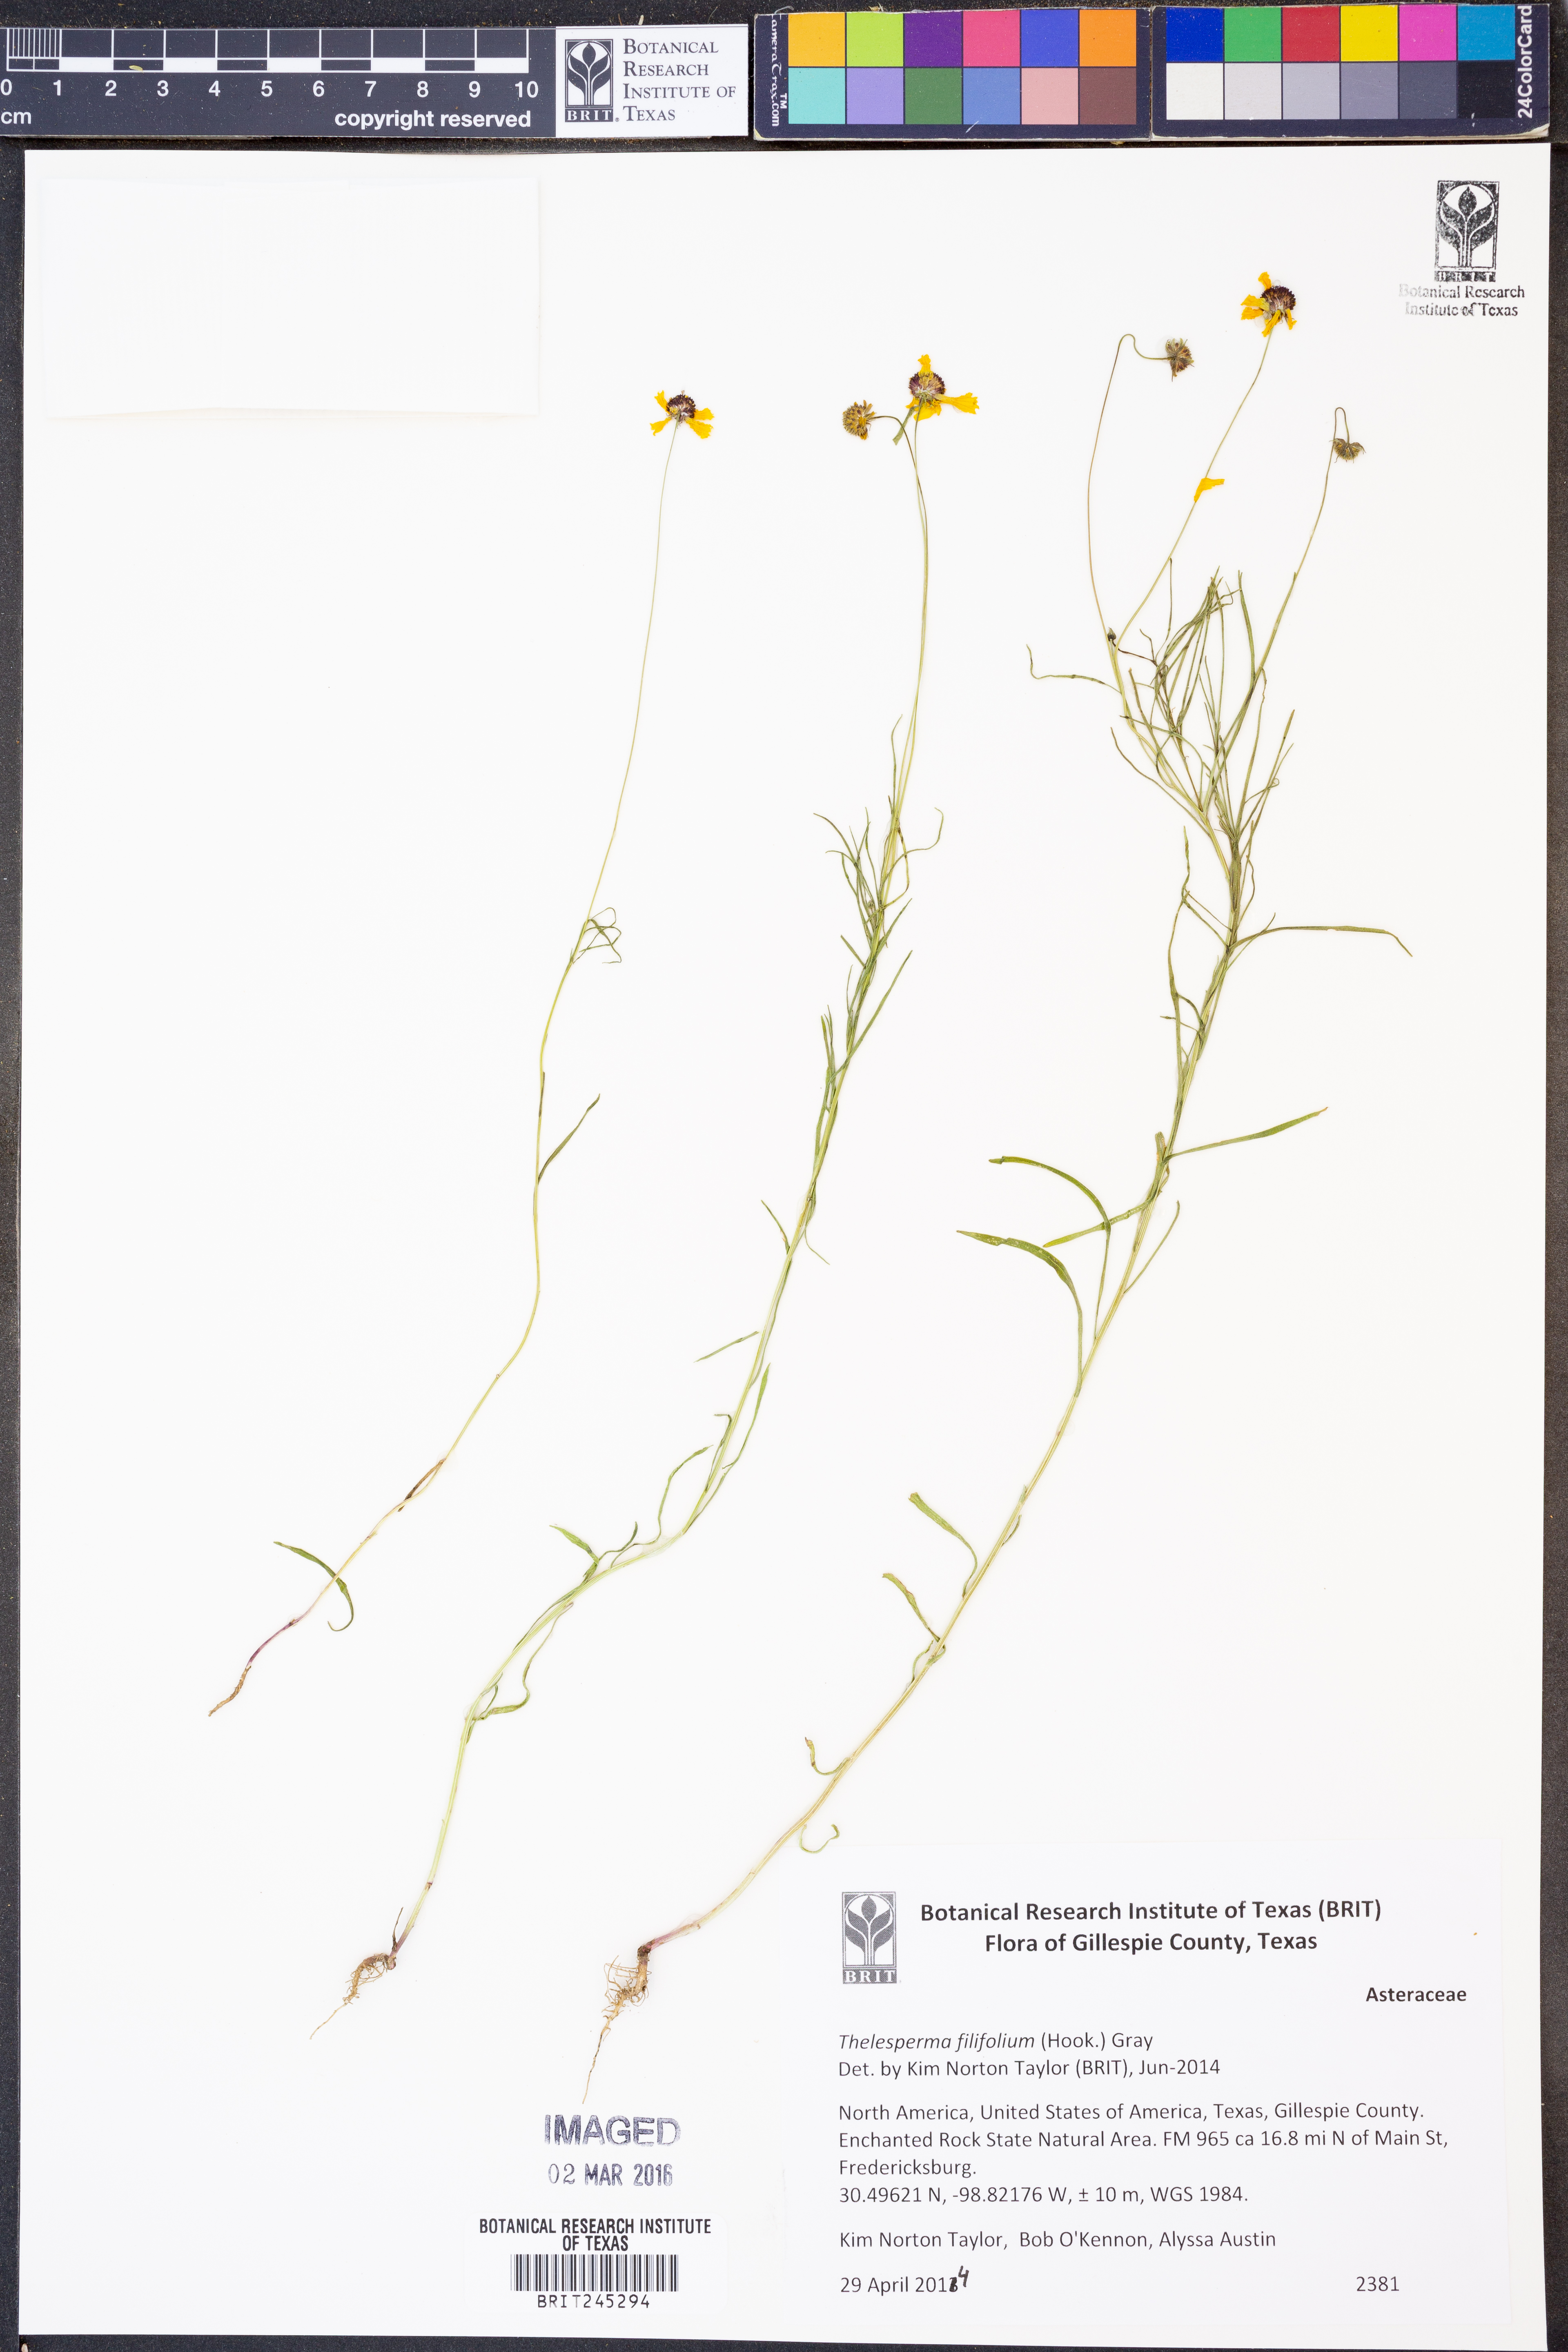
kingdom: Plantae
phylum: Tracheophyta
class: Magnoliopsida
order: Asterales
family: Asteraceae
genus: Thelesperma
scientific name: Thelesperma filifolium
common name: Stiff greenthread
